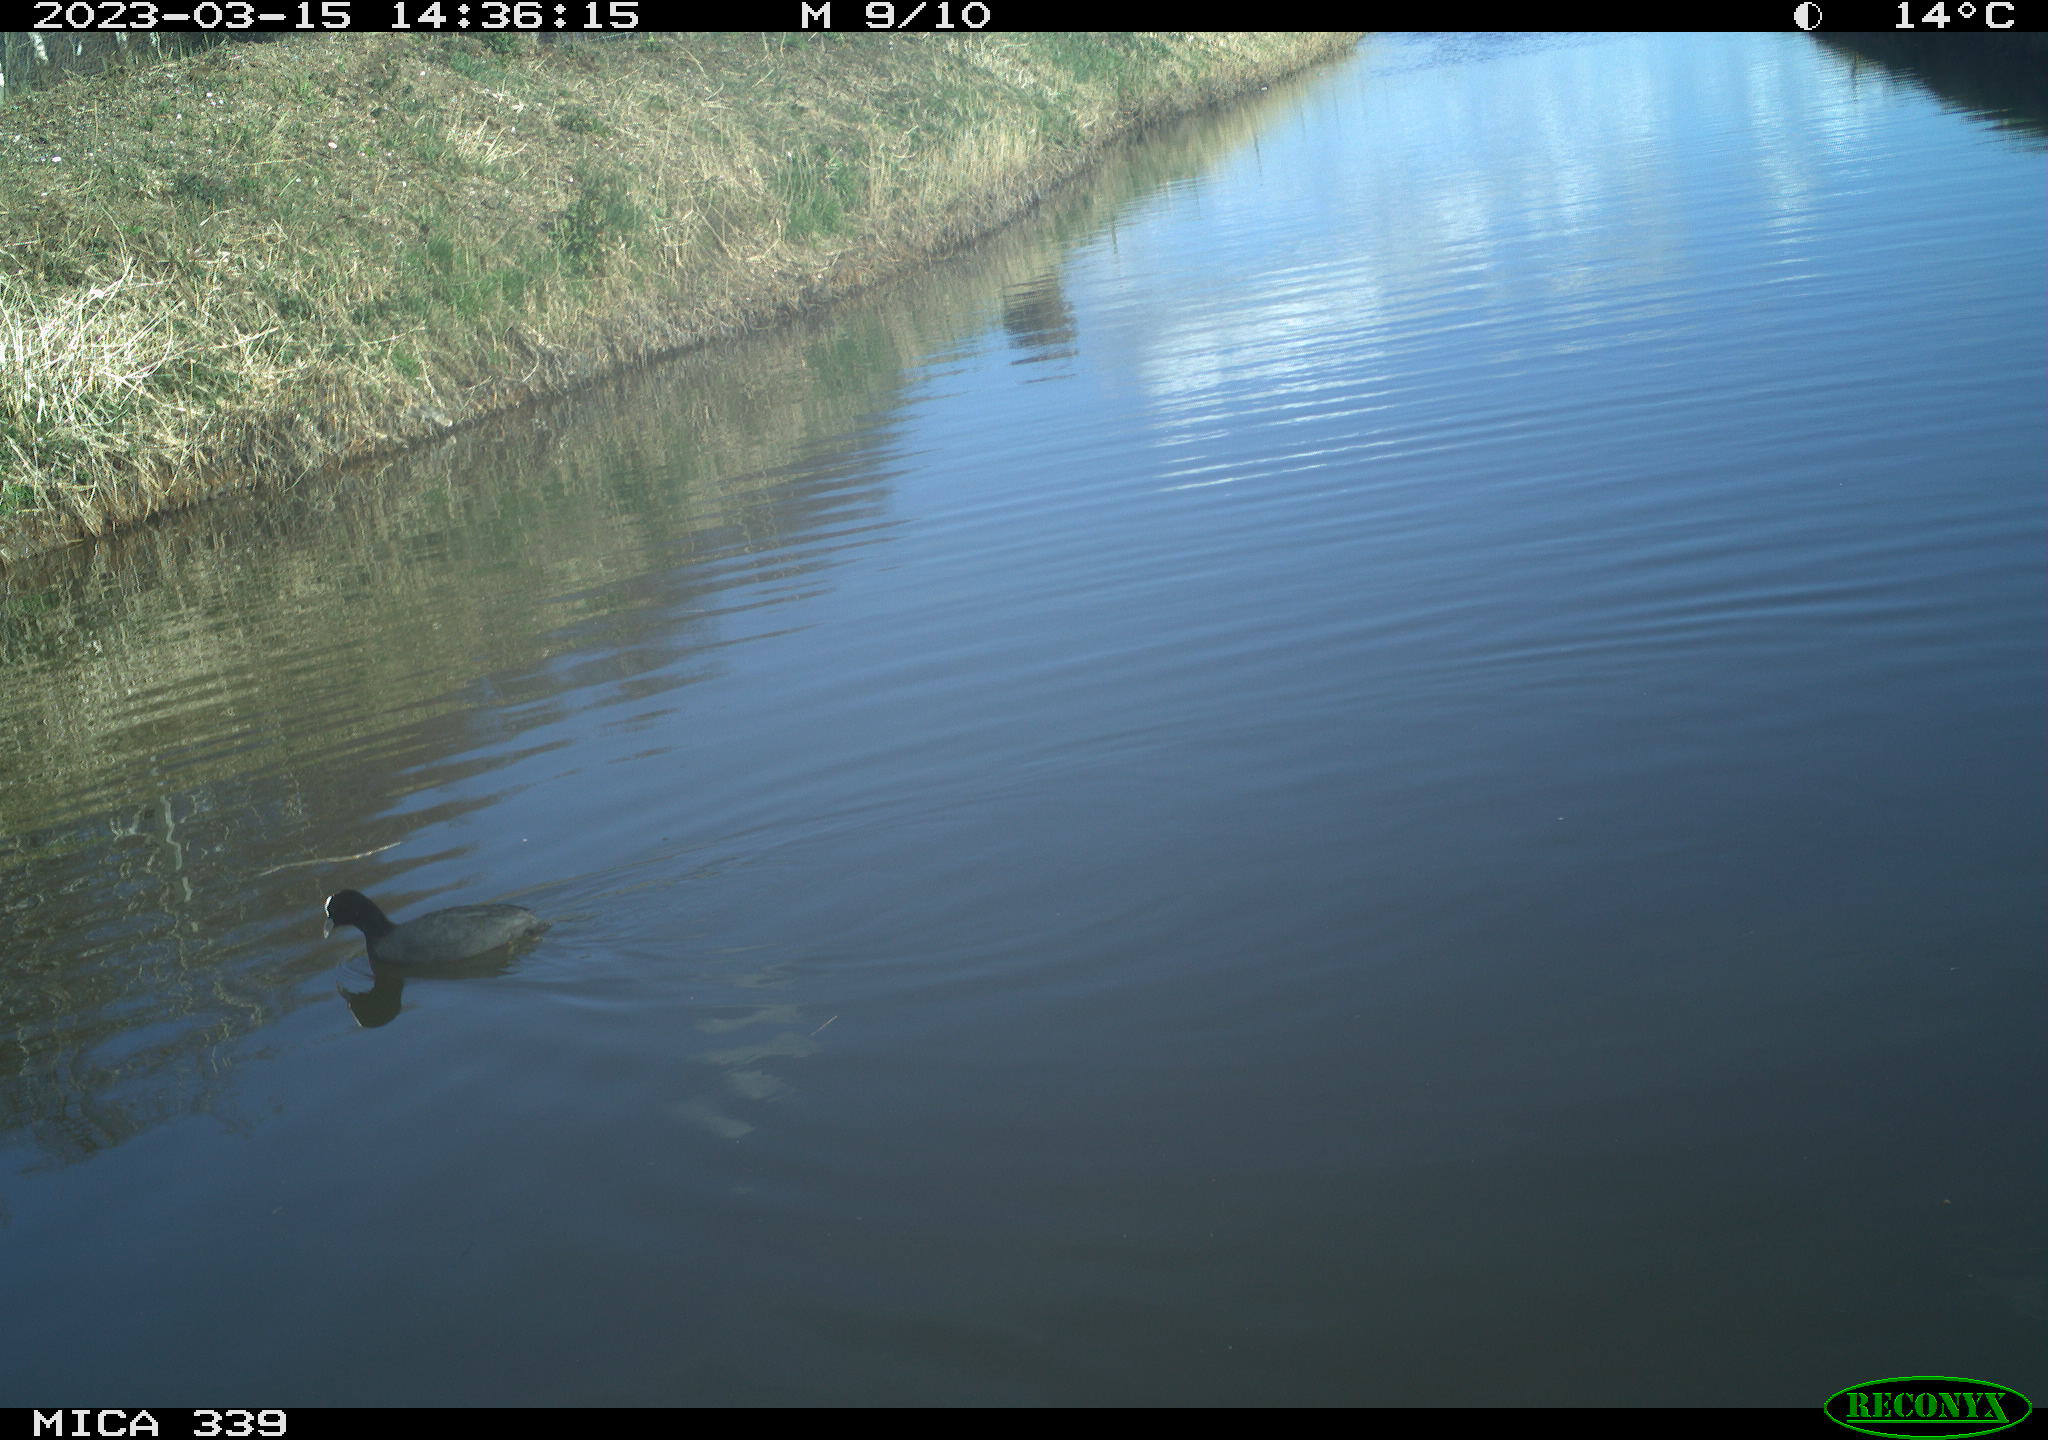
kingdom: Animalia
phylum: Chordata
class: Aves
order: Suliformes
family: Phalacrocoracidae
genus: Phalacrocorax
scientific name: Phalacrocorax carbo
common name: Great cormorant
